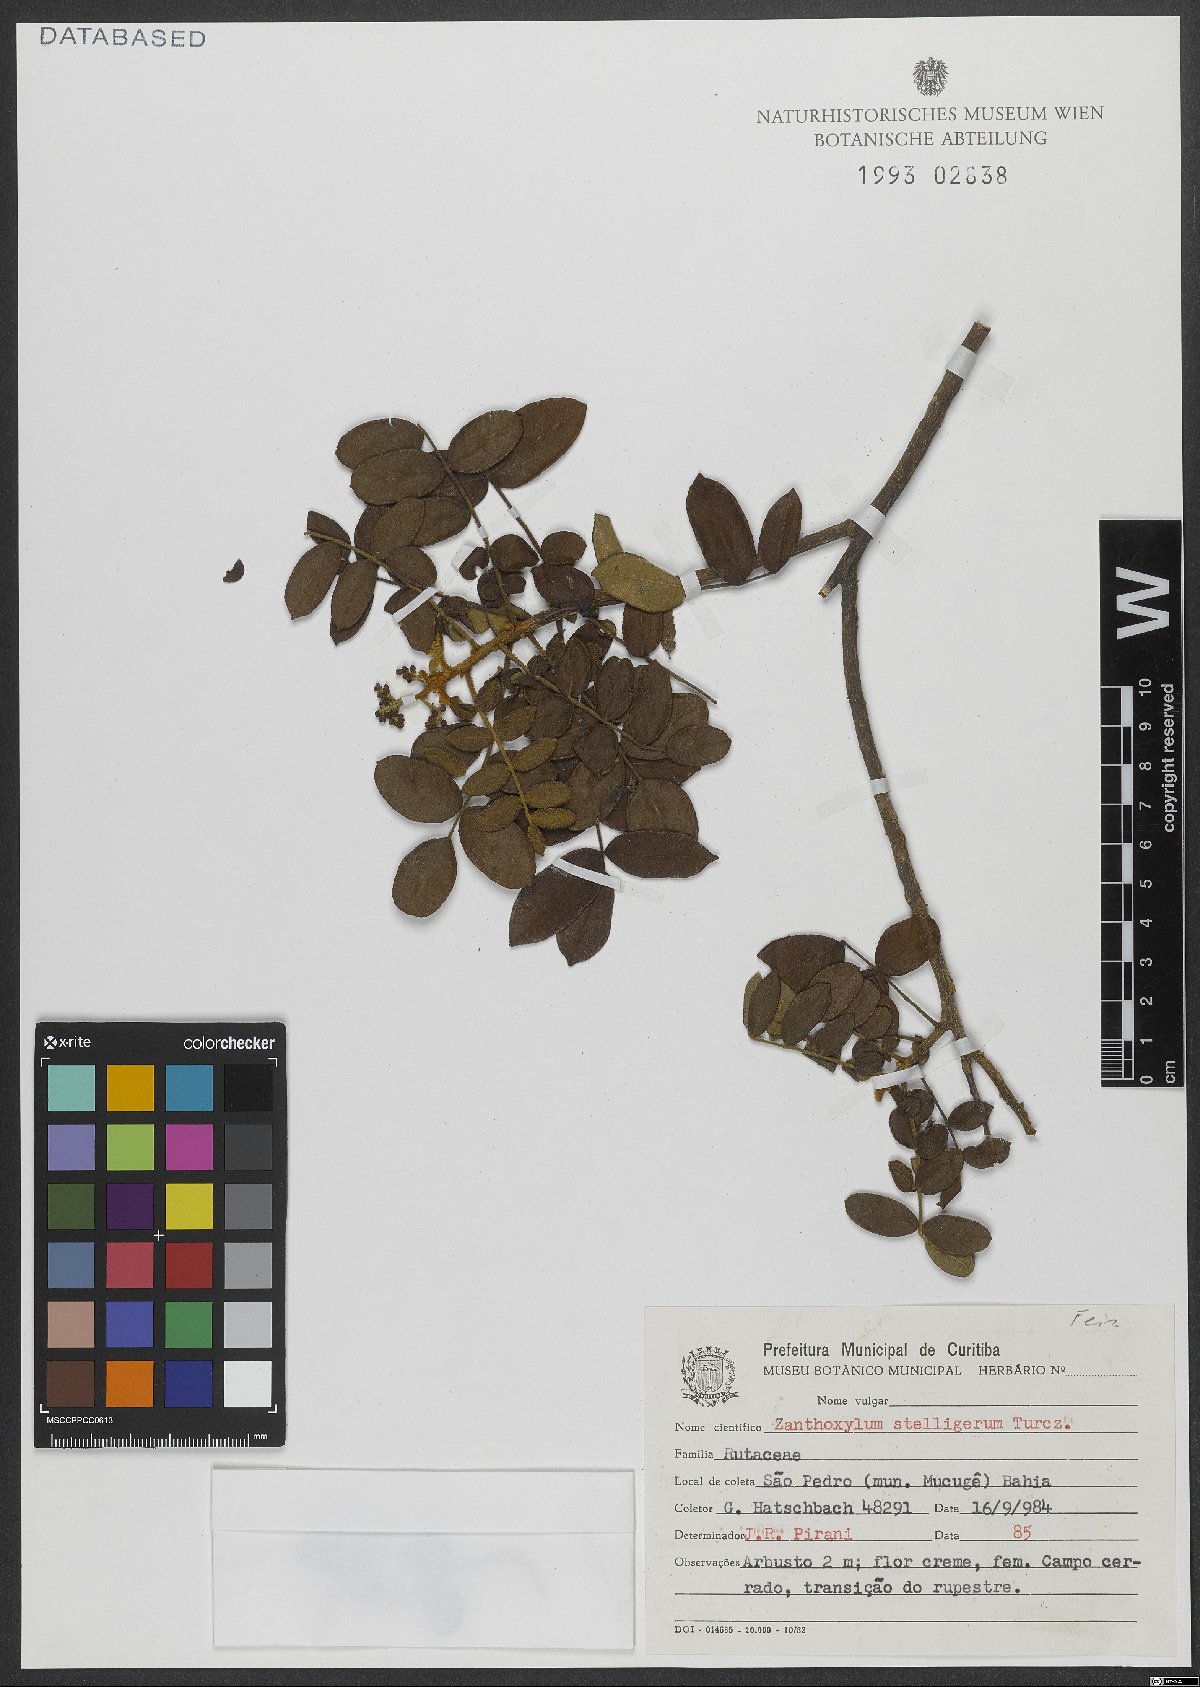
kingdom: Plantae
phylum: Tracheophyta
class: Magnoliopsida
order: Sapindales
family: Rutaceae
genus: Zanthoxylum
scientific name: Zanthoxylum stelligerum
